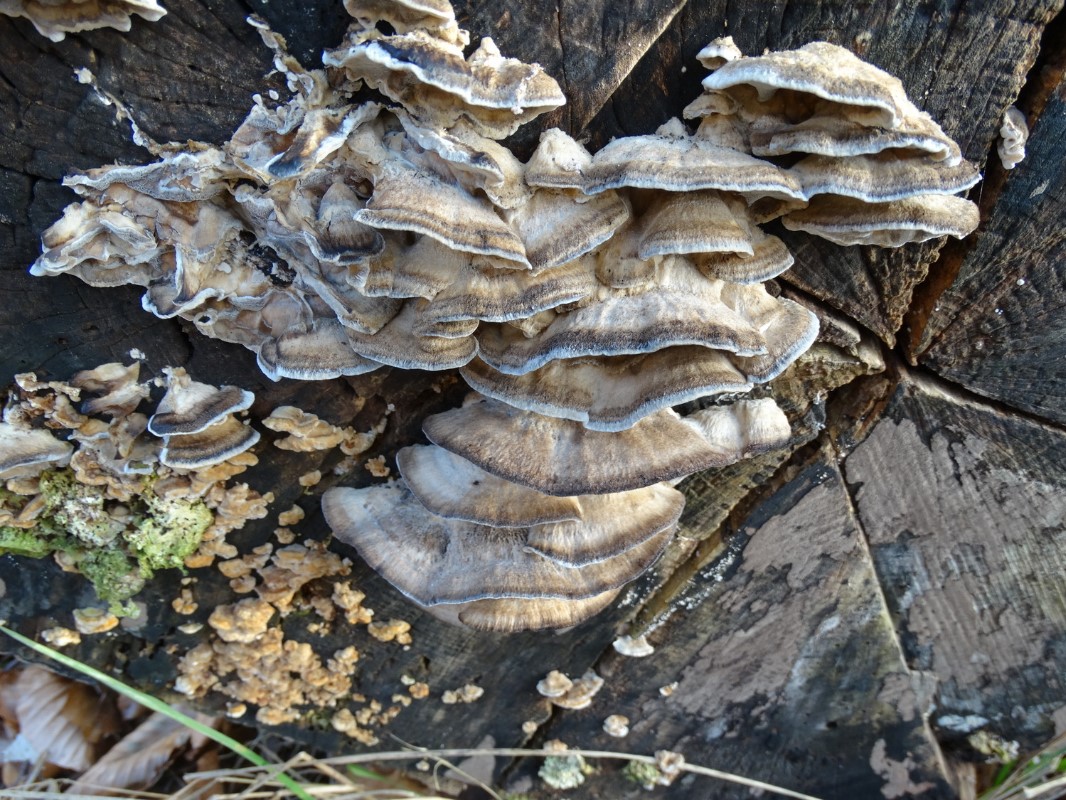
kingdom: Fungi
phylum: Basidiomycota
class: Agaricomycetes
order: Polyporales
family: Phanerochaetaceae
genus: Bjerkandera
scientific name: Bjerkandera adusta
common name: sveden sodporesvamp
